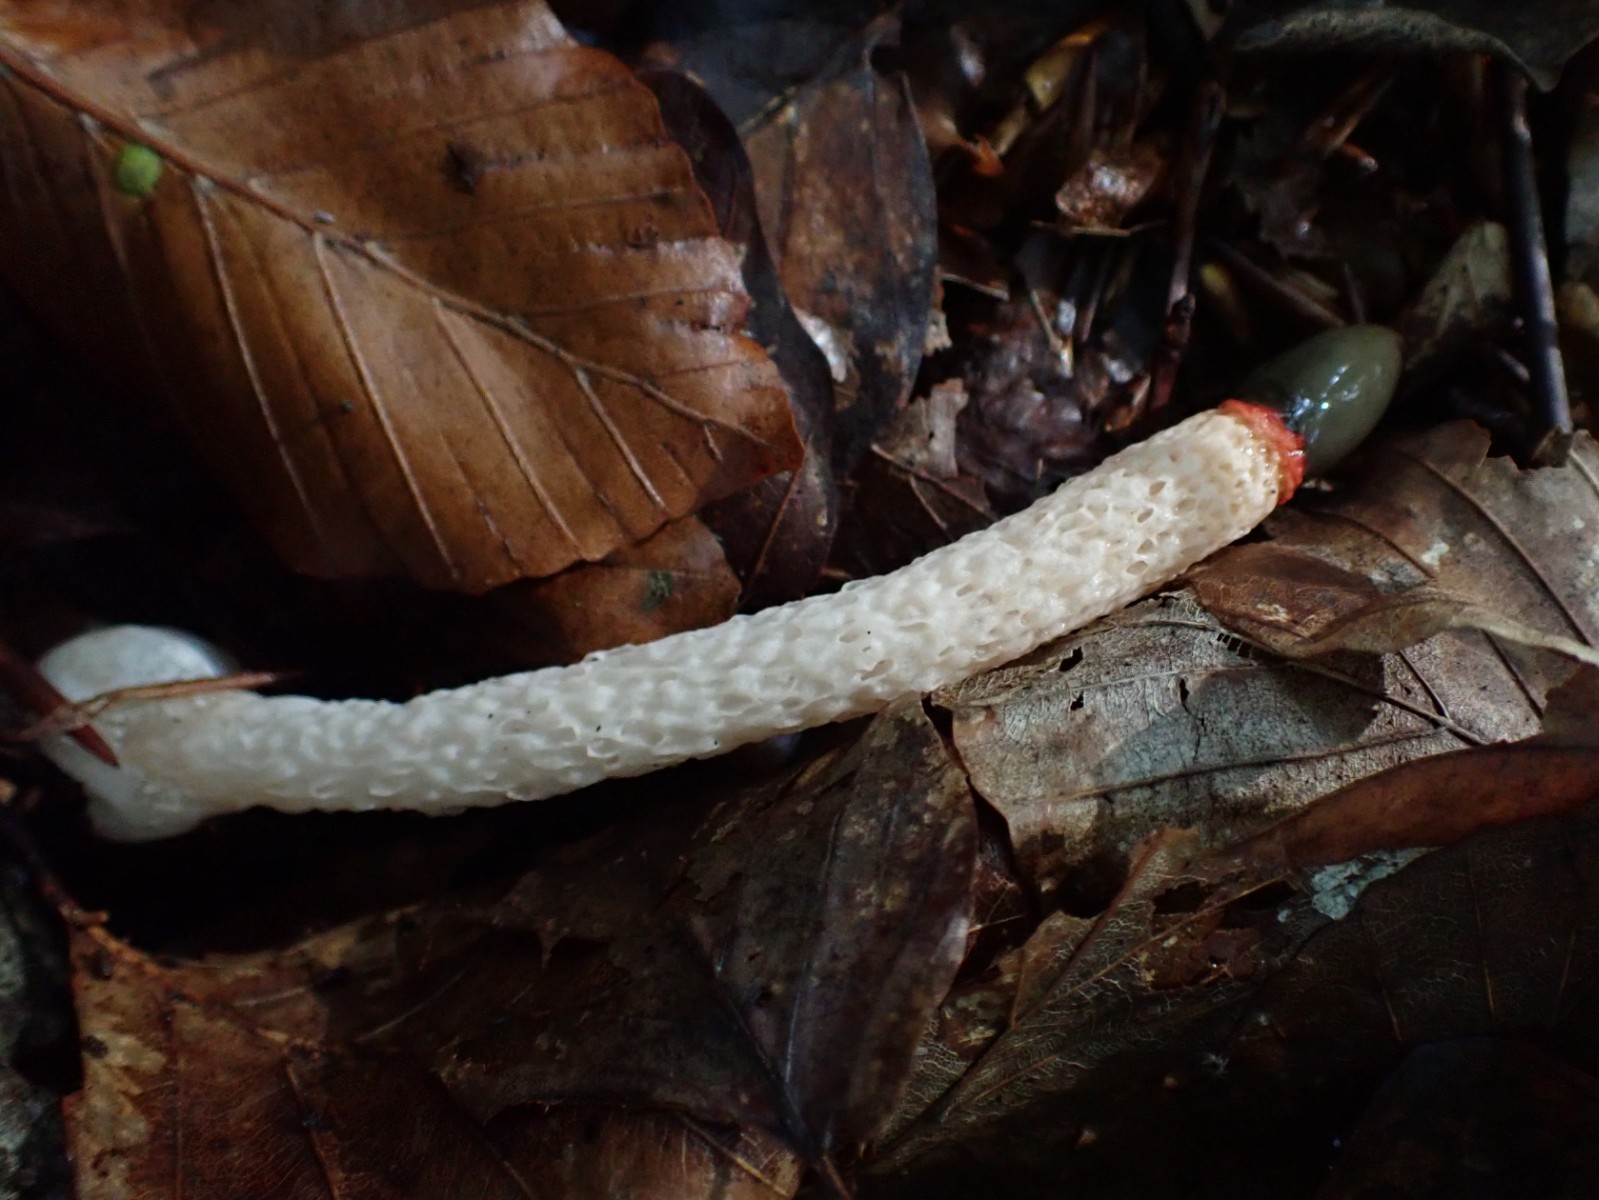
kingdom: Fungi
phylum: Basidiomycota
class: Agaricomycetes
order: Phallales
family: Phallaceae
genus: Mutinus
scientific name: Mutinus caninus
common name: hunde-stinksvamp
